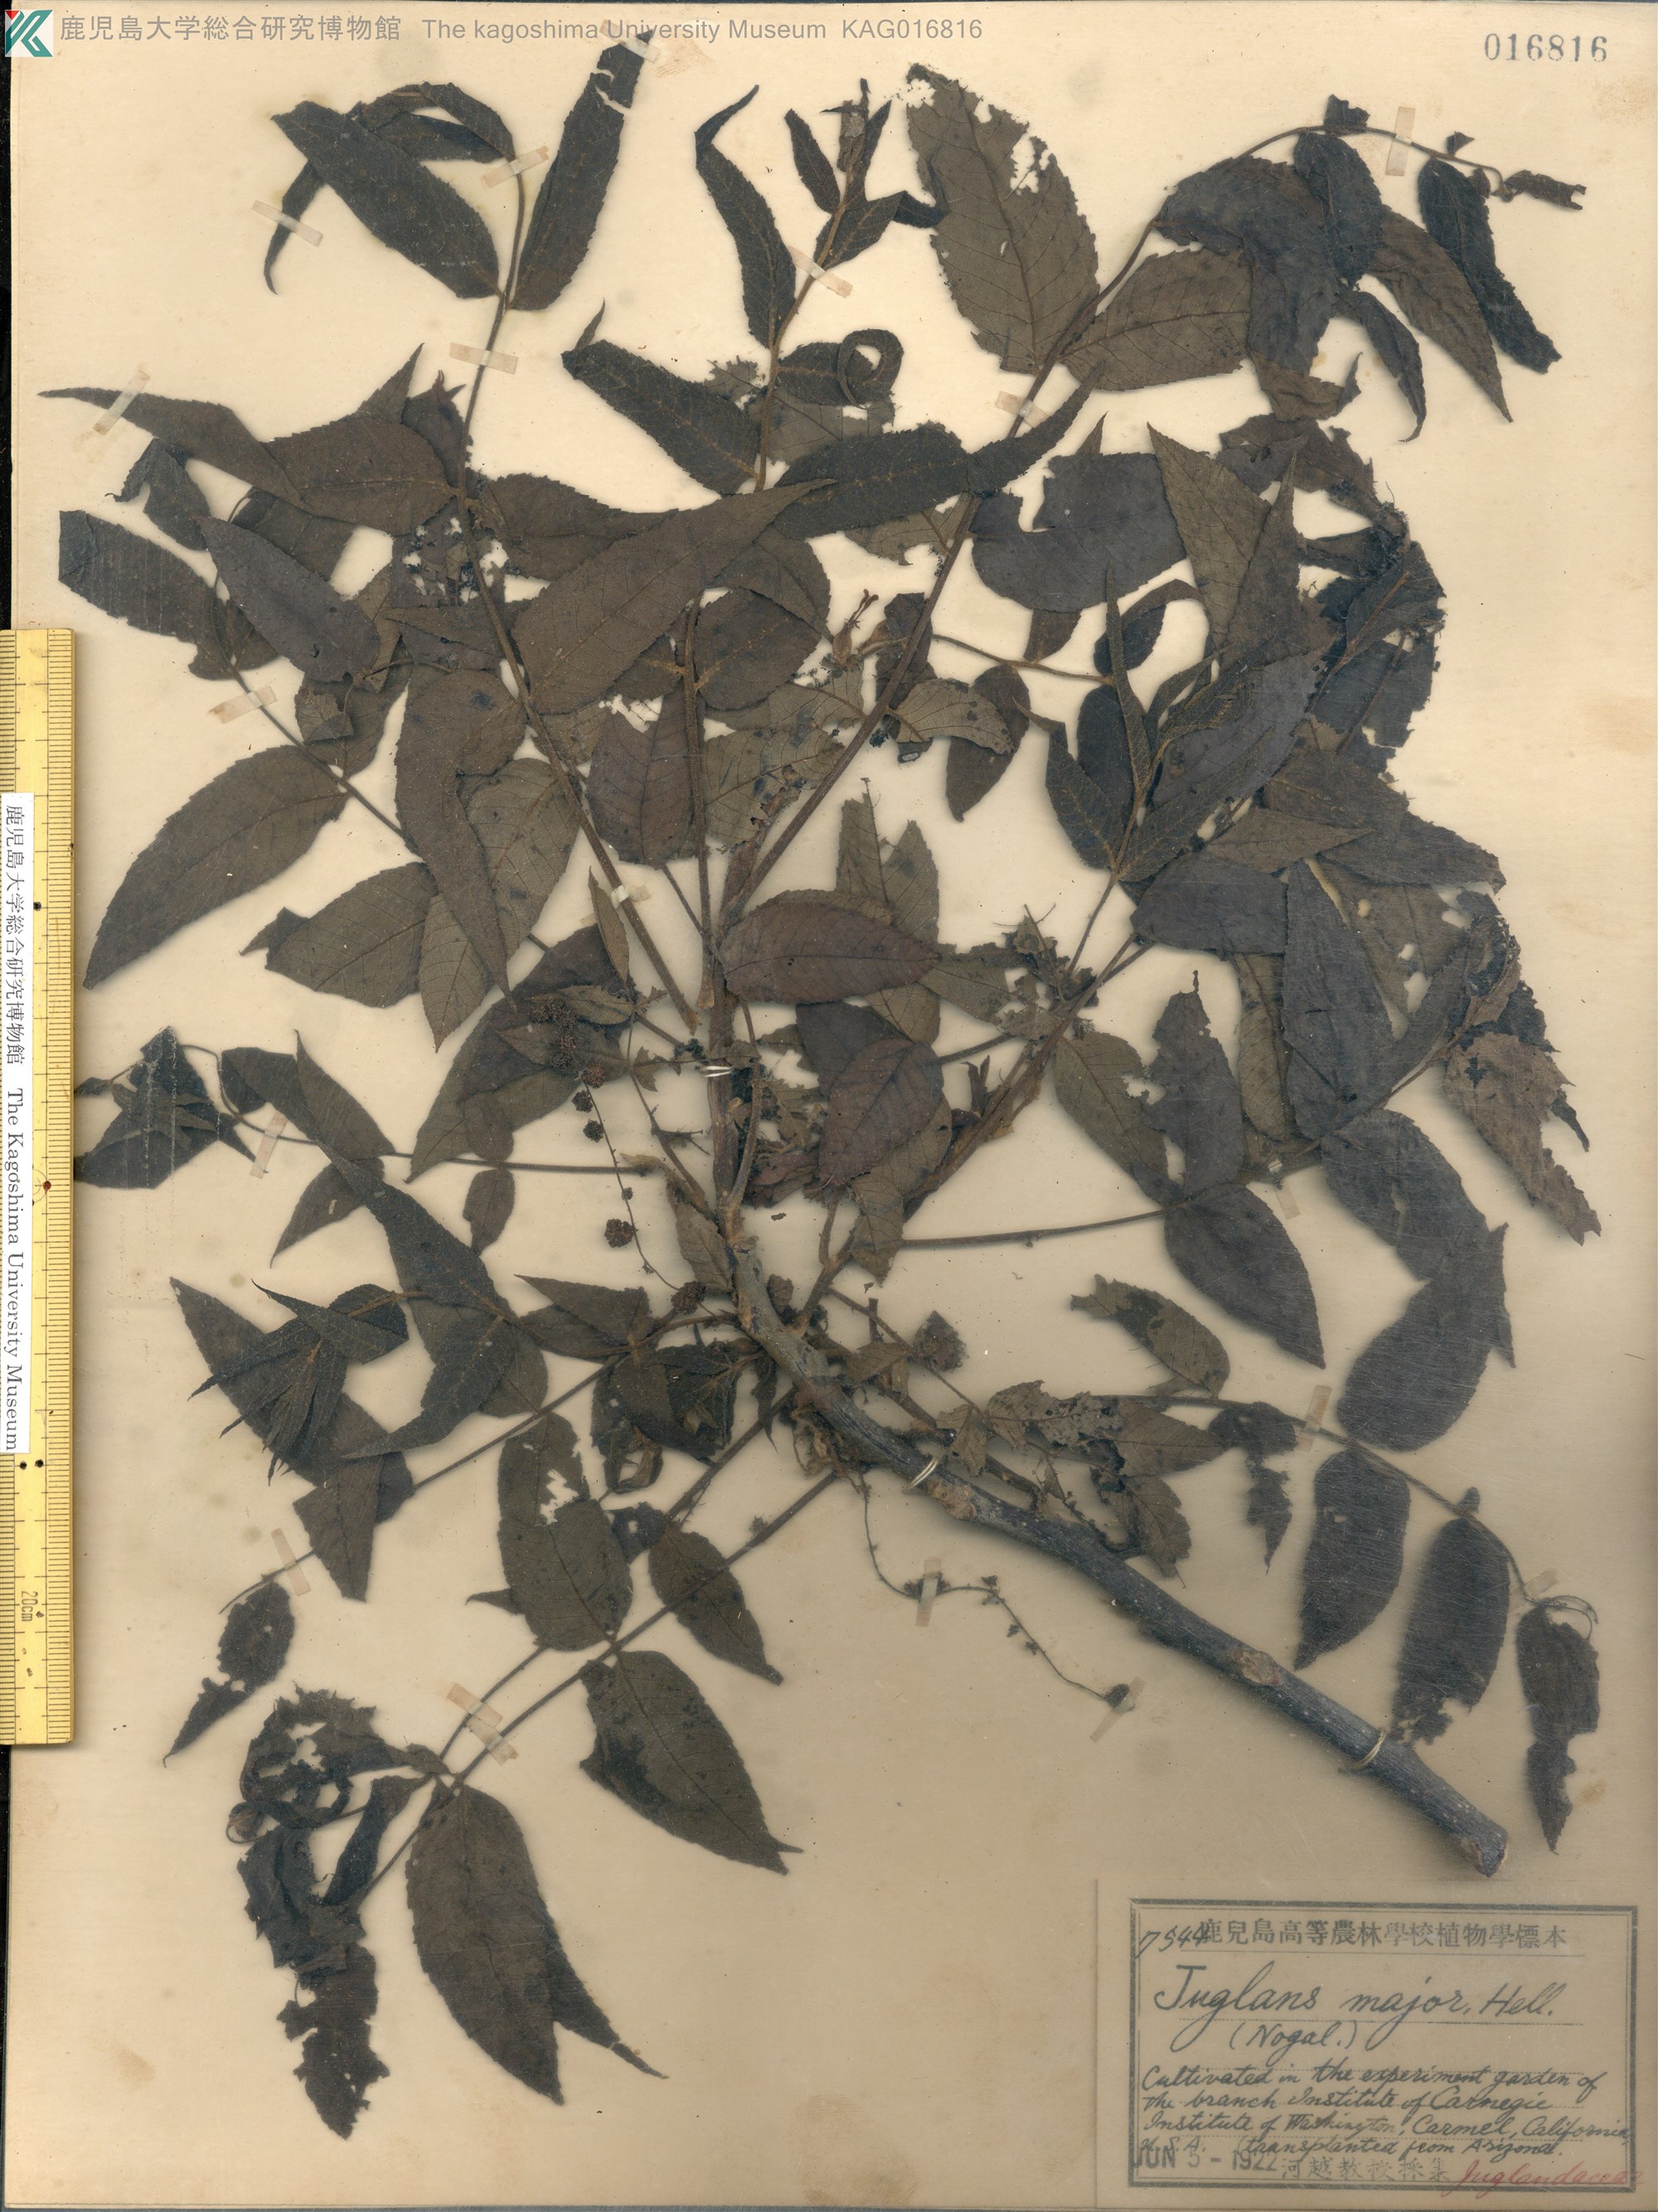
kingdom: Plantae
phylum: Tracheophyta
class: Magnoliopsida
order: Fagales
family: Juglandaceae
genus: Juglans
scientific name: Juglans major
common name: Arizona walnut
